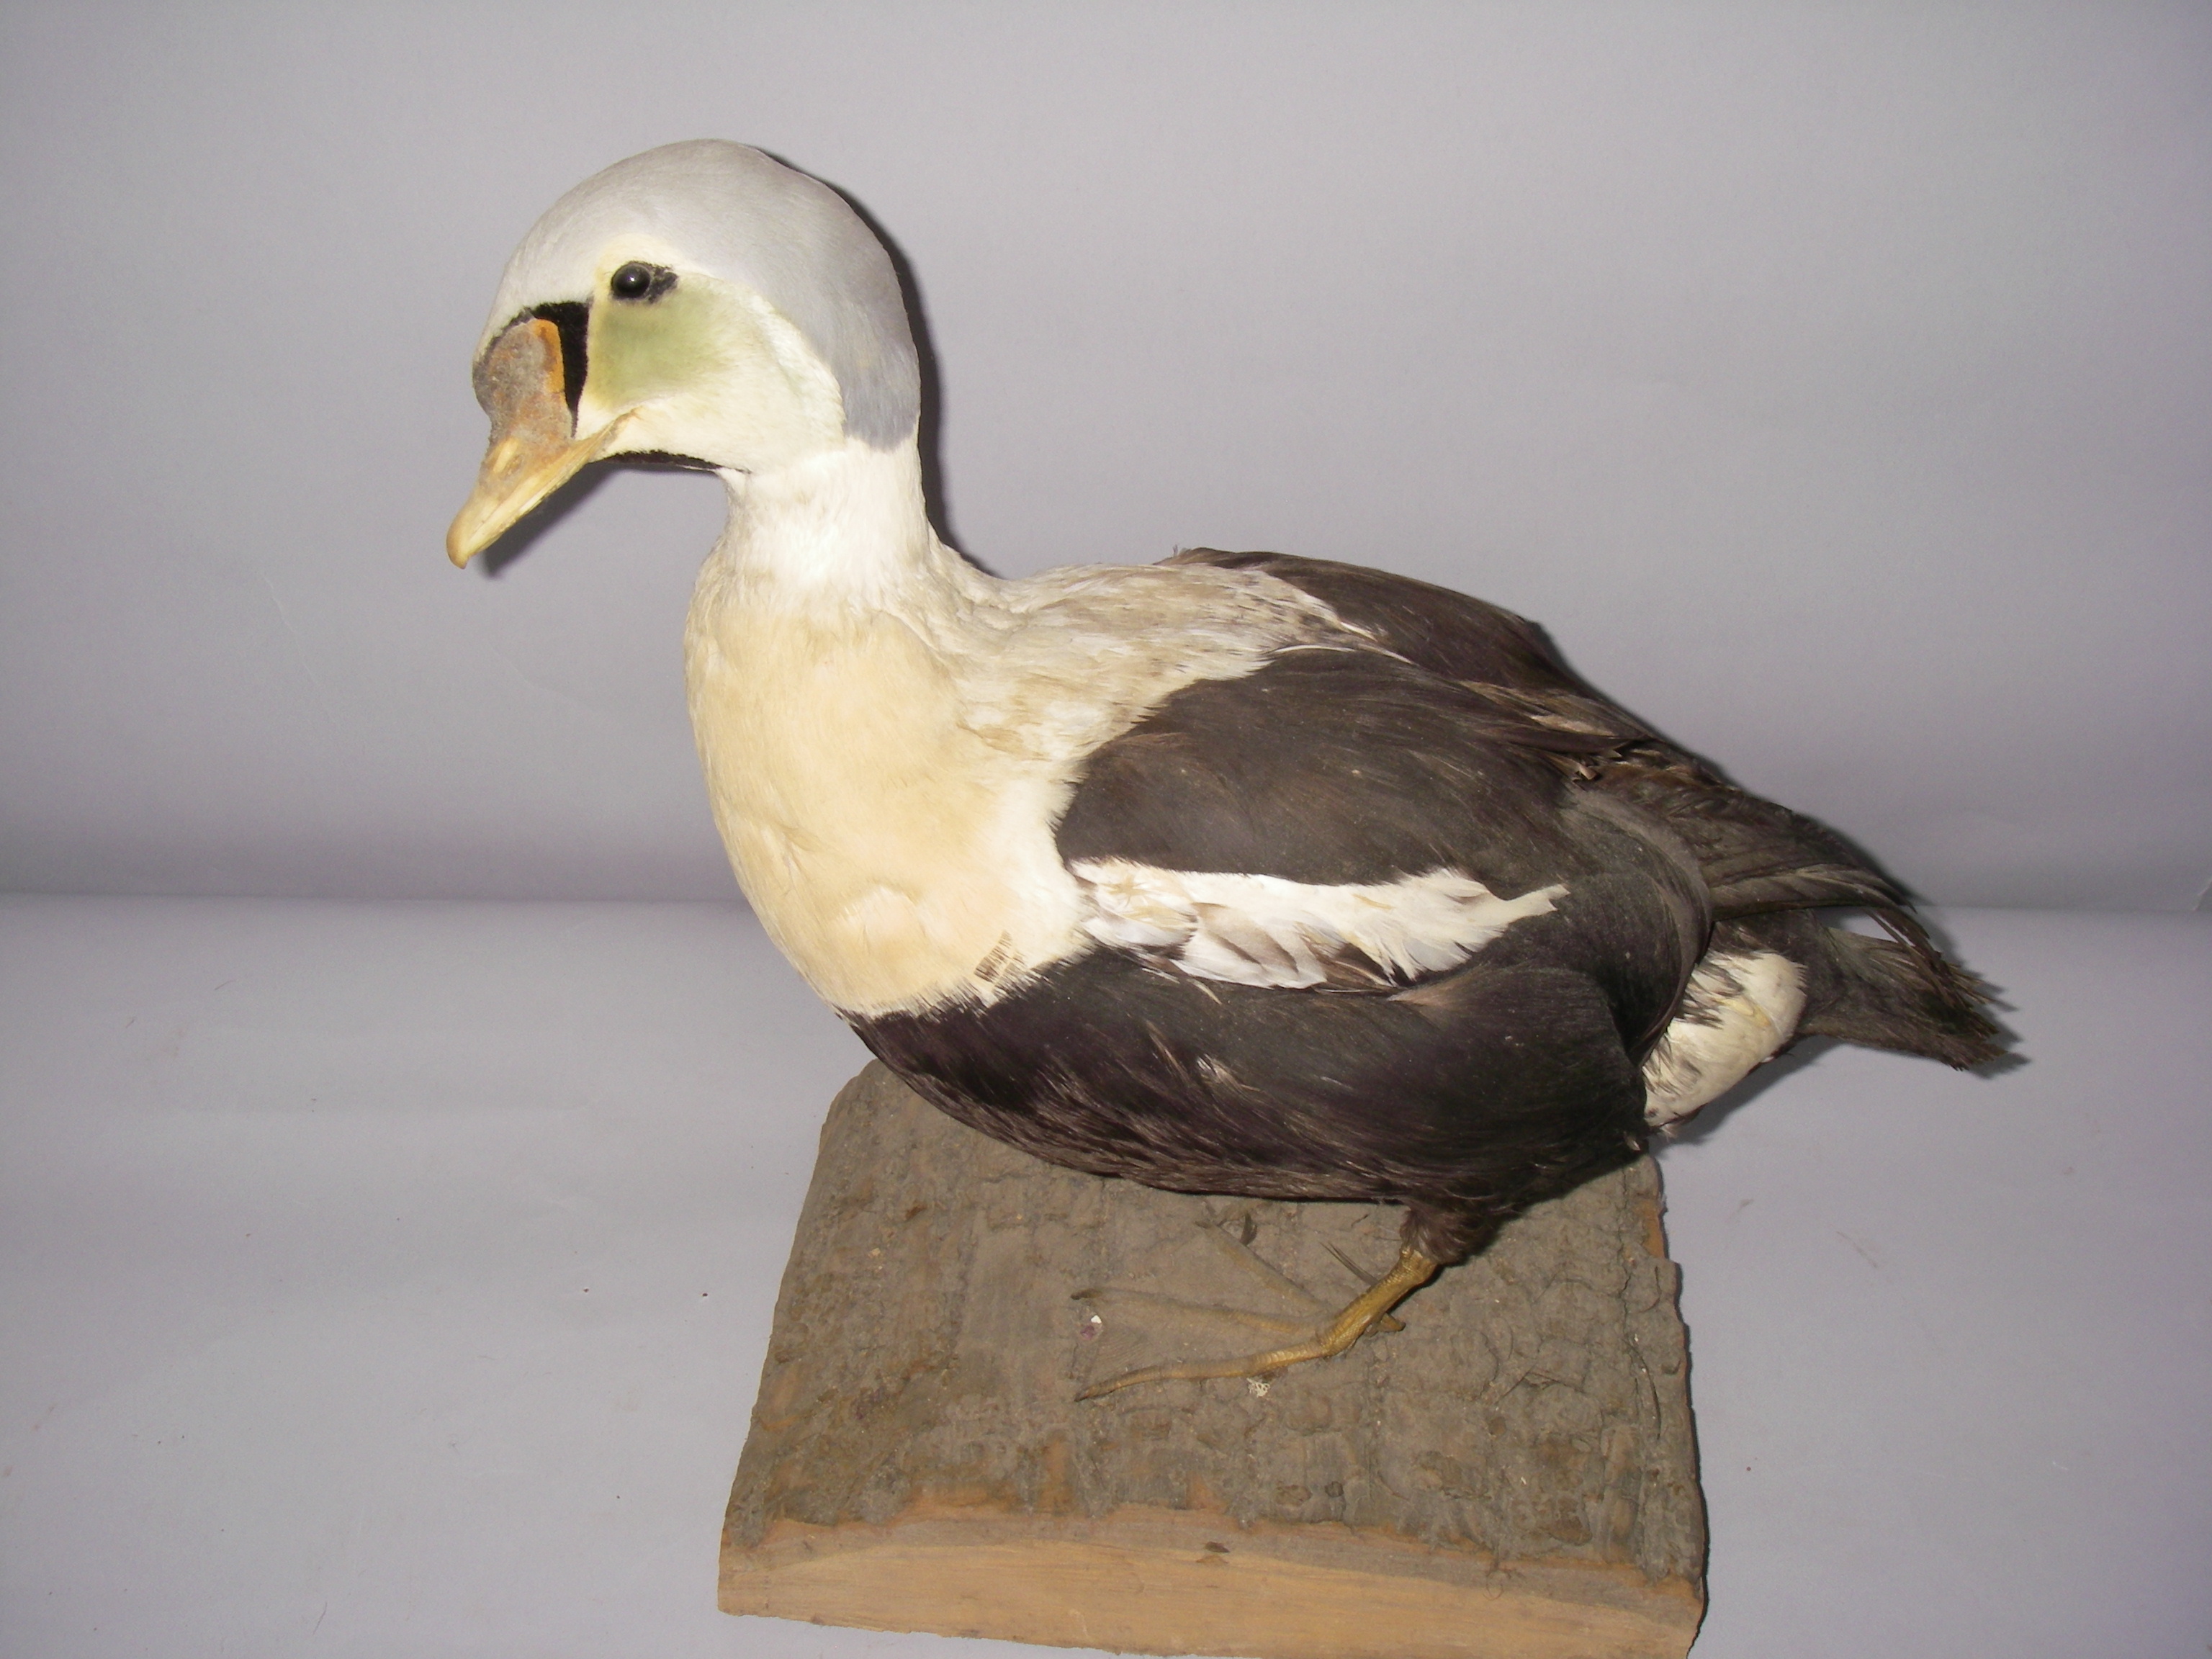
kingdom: Animalia
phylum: Chordata
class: Aves
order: Anseriformes
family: Anatidae
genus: Somateria
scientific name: Somateria spectabilis
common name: King eider
